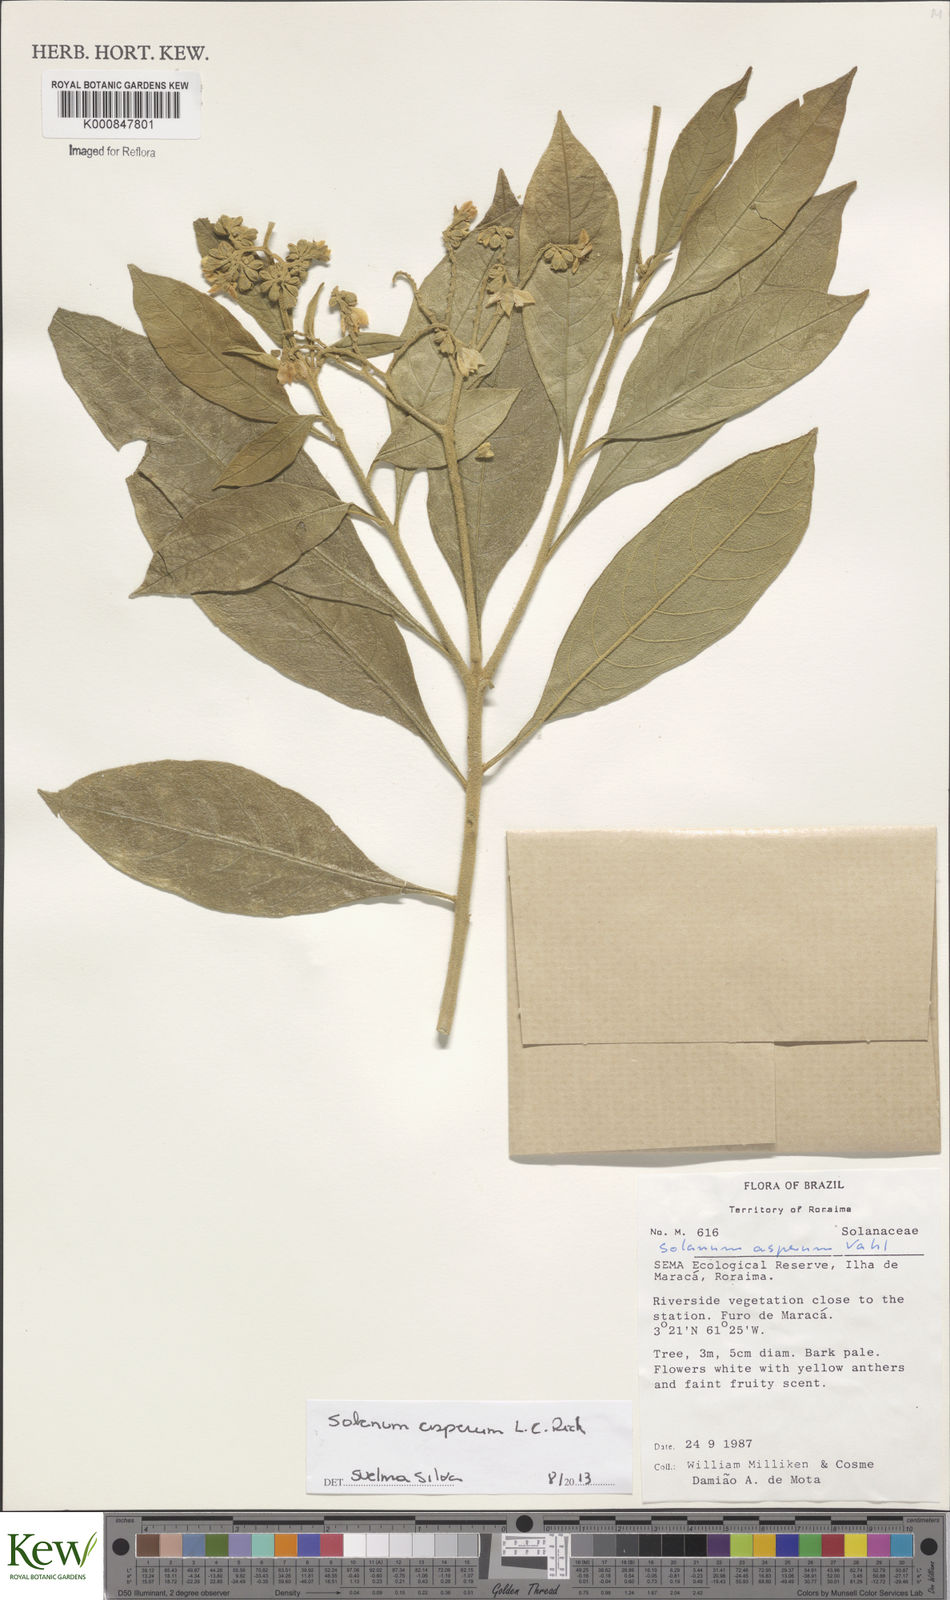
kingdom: Plantae
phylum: Tracheophyta
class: Magnoliopsida
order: Solanales
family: Solanaceae
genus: Solanum
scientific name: Solanum asperum
